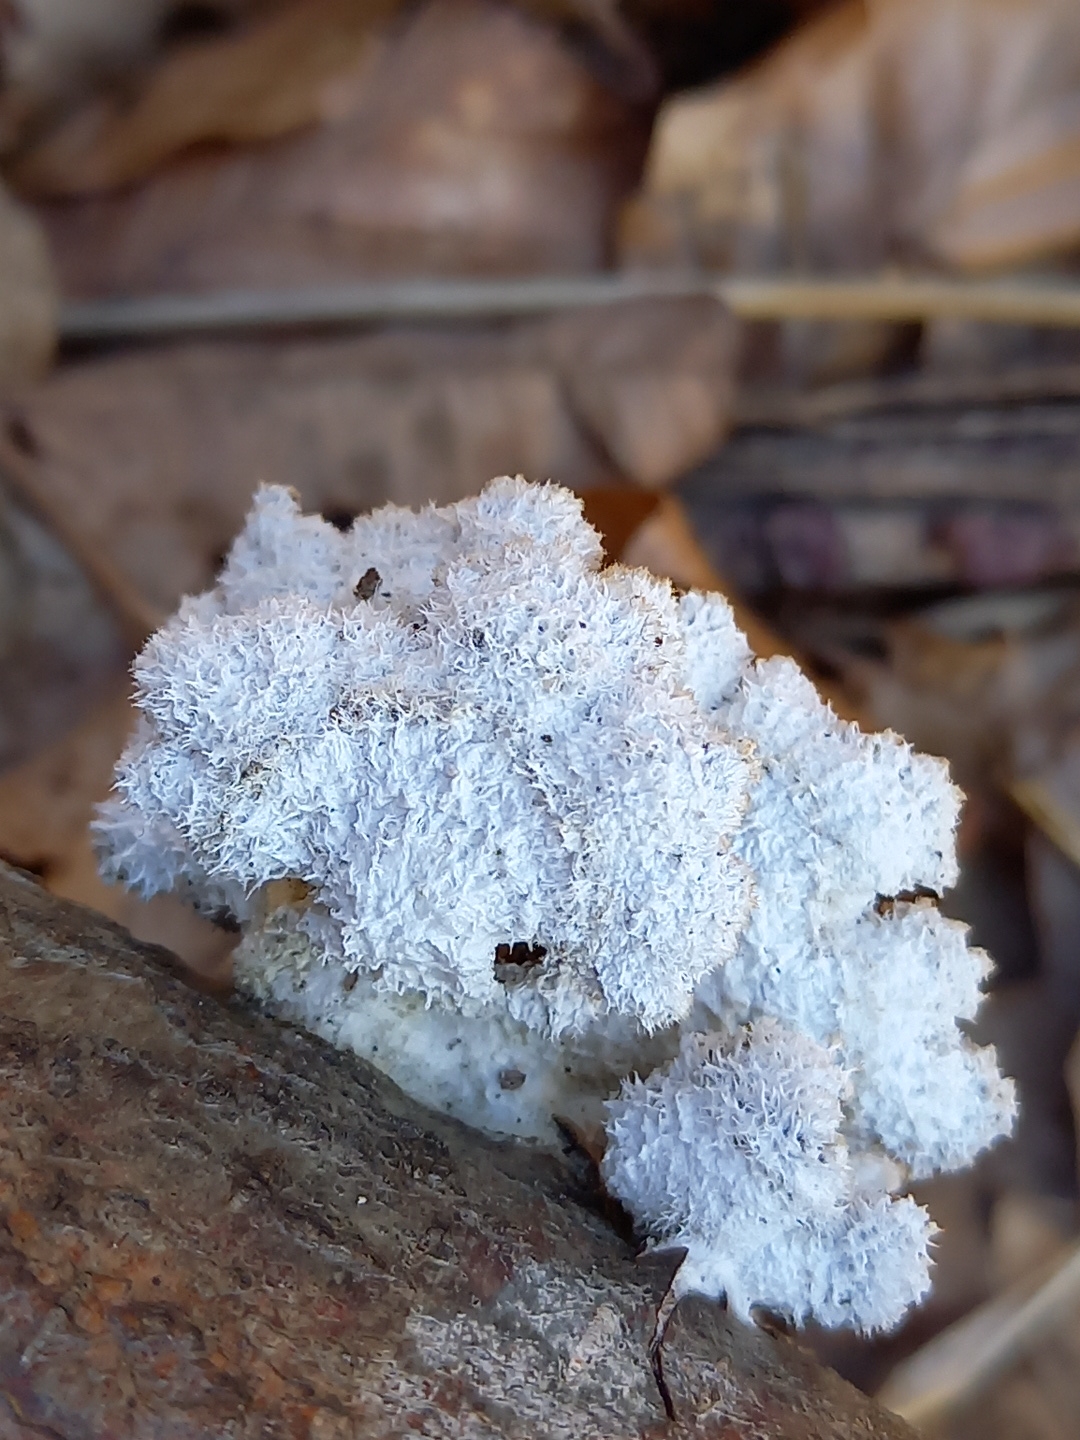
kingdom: Fungi
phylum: Basidiomycota
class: Agaricomycetes
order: Agaricales
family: Schizophyllaceae
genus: Schizophyllum
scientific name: Schizophyllum commune
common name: kløvblad
